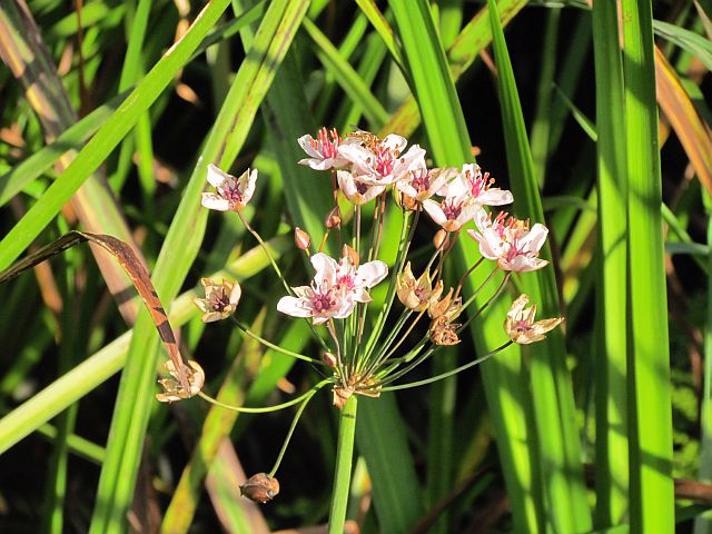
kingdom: Plantae
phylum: Tracheophyta
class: Liliopsida
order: Alismatales
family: Butomaceae
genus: Butomus
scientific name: Butomus umbellatus
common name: Brudelys
